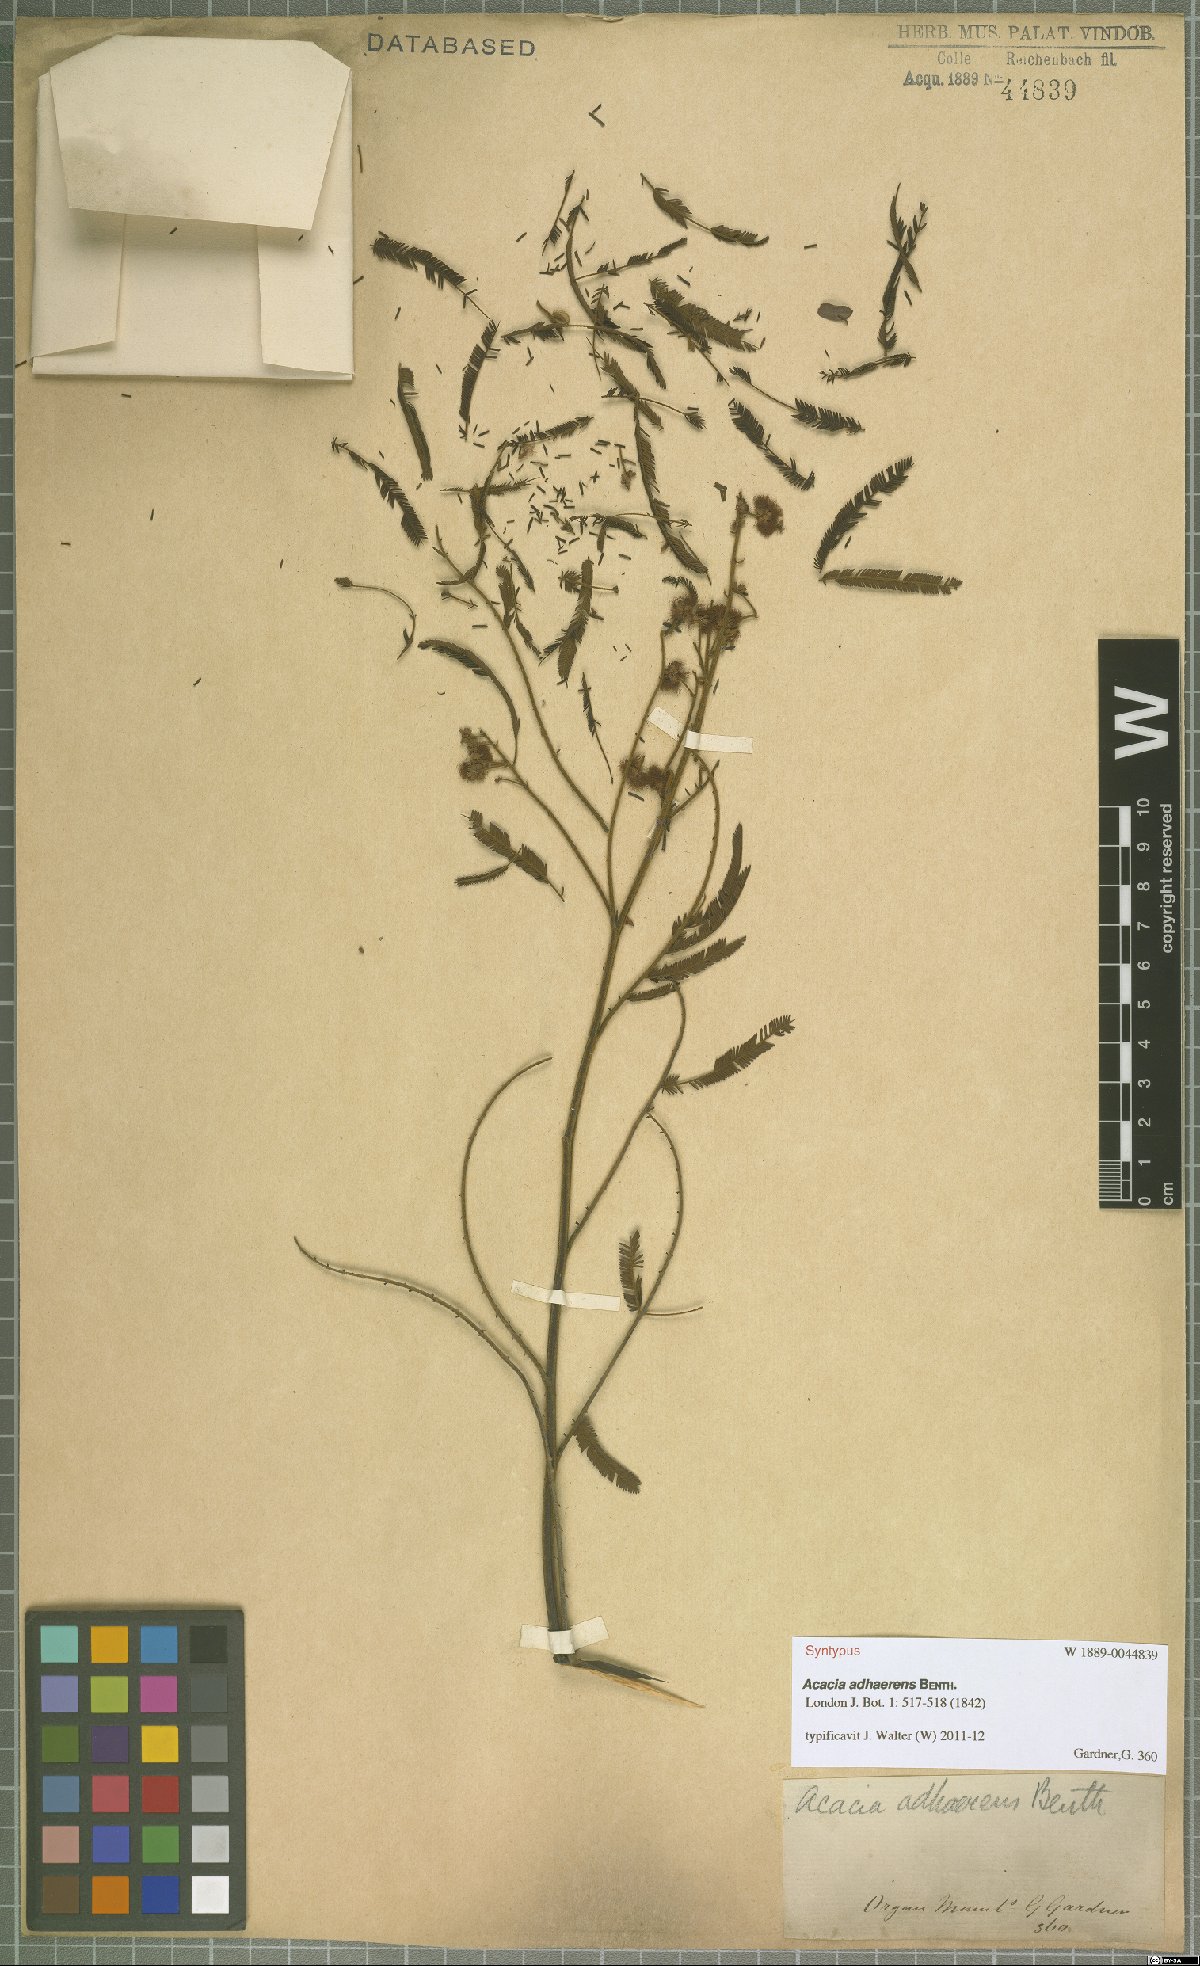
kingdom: Plantae
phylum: Tracheophyta
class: Magnoliopsida
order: Fabales
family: Fabaceae
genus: Senegalia
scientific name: Senegalia martiusiana
